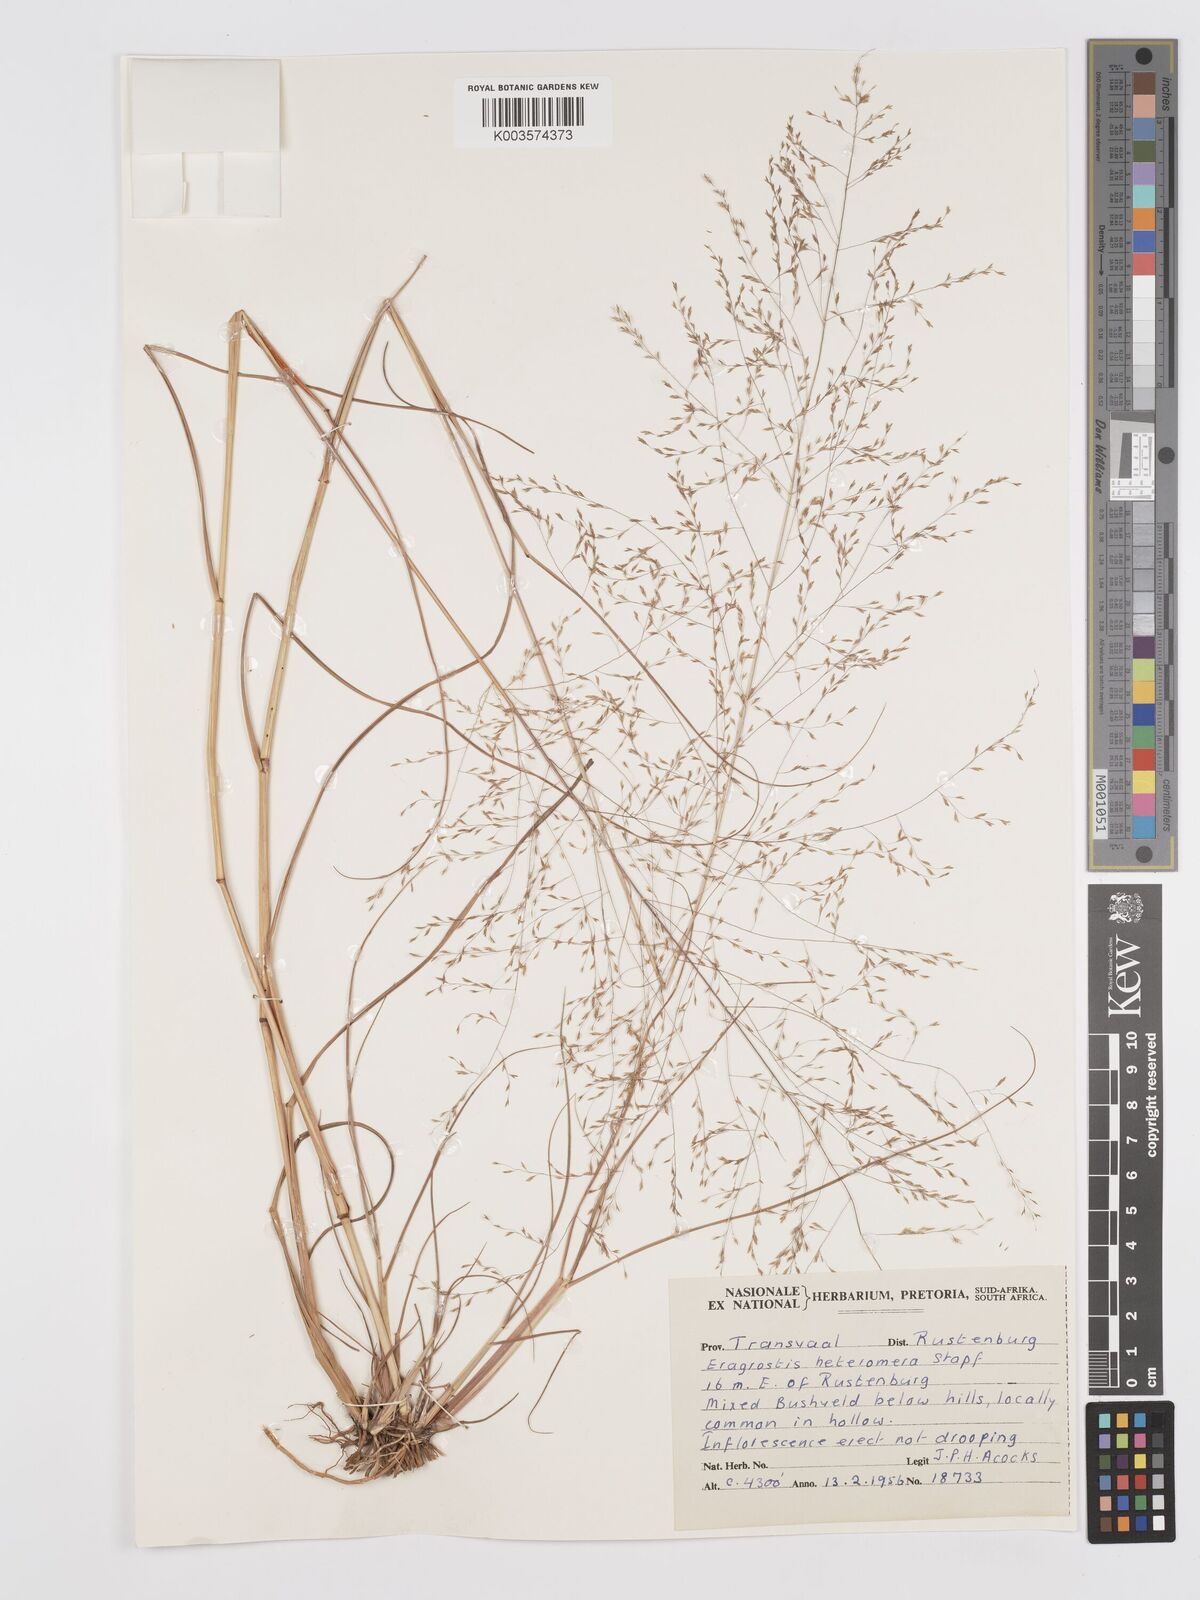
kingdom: Plantae
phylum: Tracheophyta
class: Liliopsida
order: Poales
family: Poaceae
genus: Eragrostis
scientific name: Eragrostis heteromera
